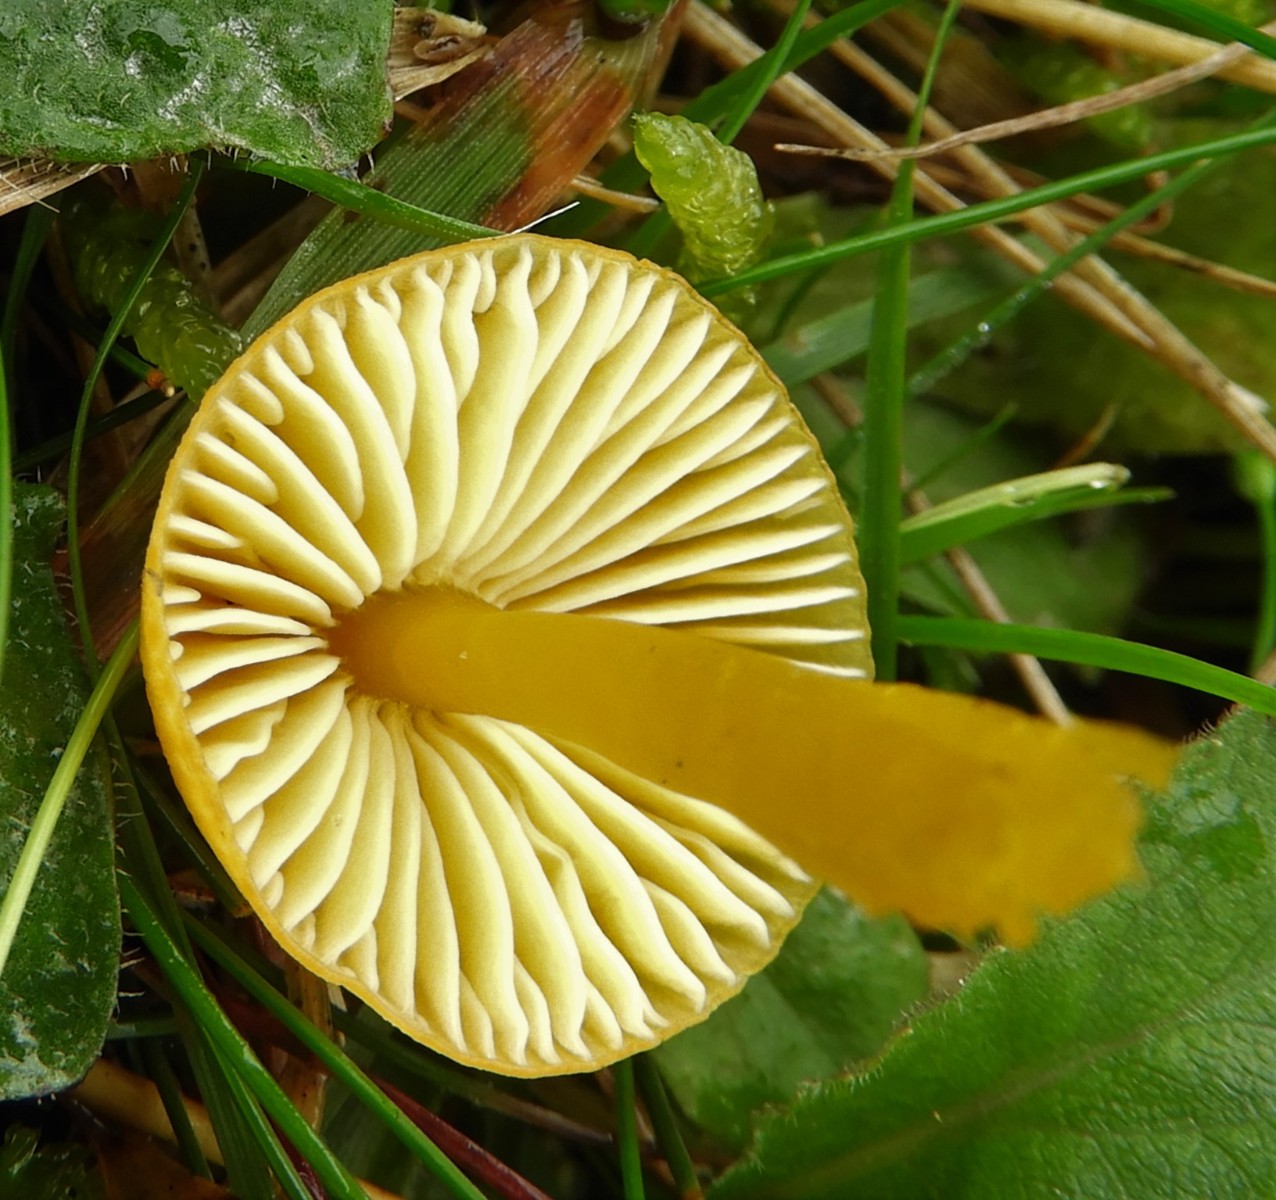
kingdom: Fungi
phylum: Basidiomycota
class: Agaricomycetes
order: Agaricales
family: Hygrophoraceae
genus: Hygrocybe
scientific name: Hygrocybe ceracea
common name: voksgul vokshat
